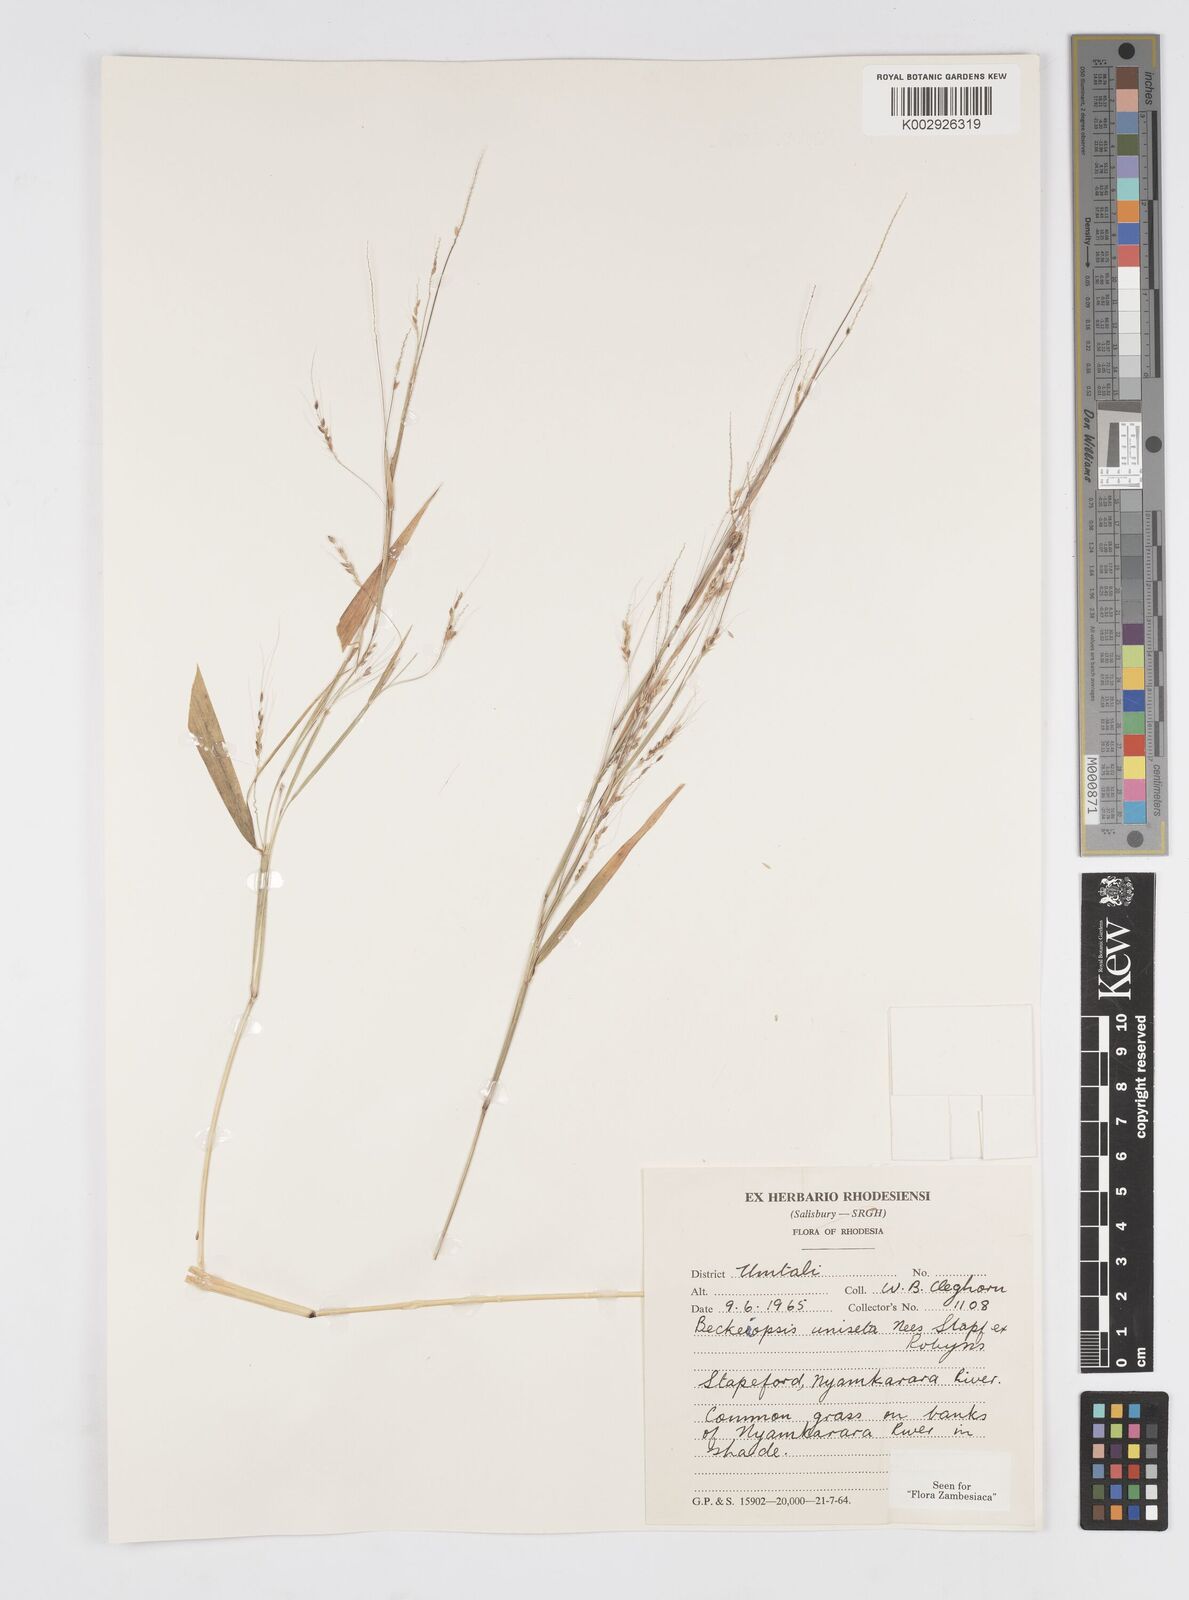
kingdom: Plantae
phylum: Tracheophyta
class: Liliopsida
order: Poales
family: Poaceae
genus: Cenchrus
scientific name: Cenchrus unisetus
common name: Natal grass
